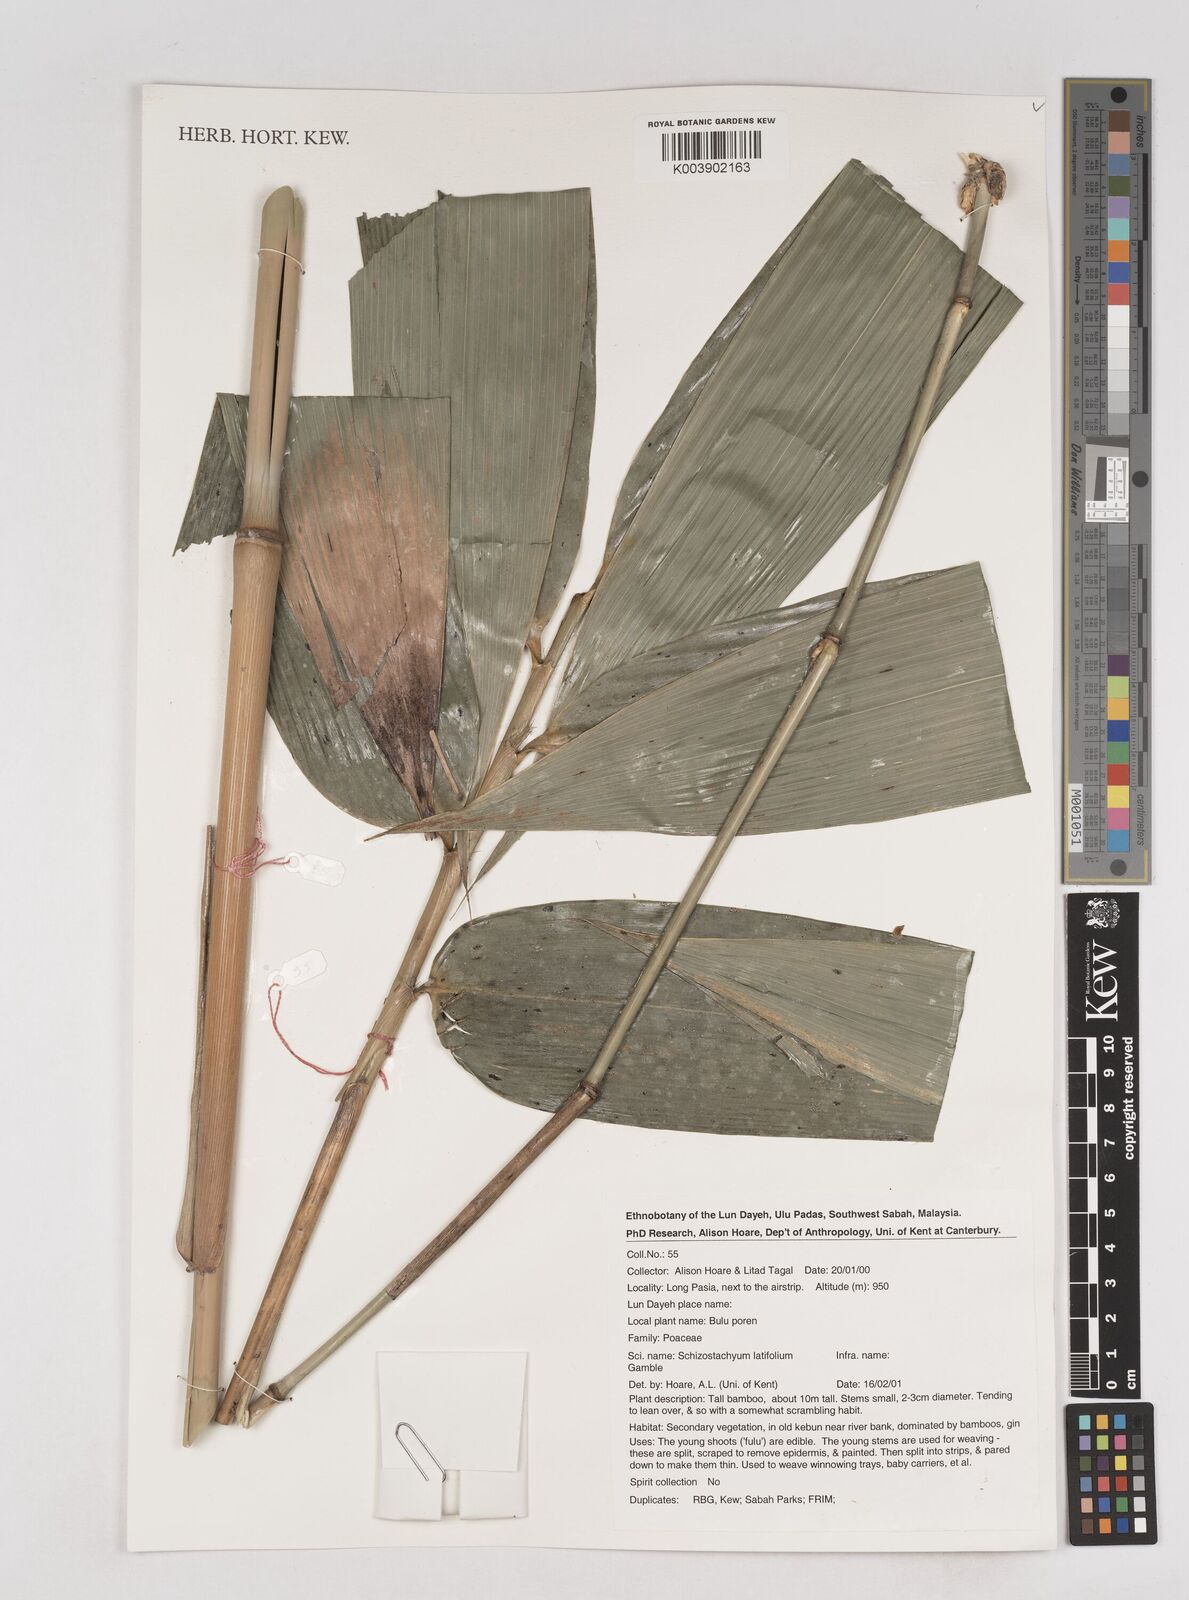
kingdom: Plantae
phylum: Tracheophyta
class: Liliopsida
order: Poales
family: Poaceae
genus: Schizostachyum
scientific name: Schizostachyum latifolium
